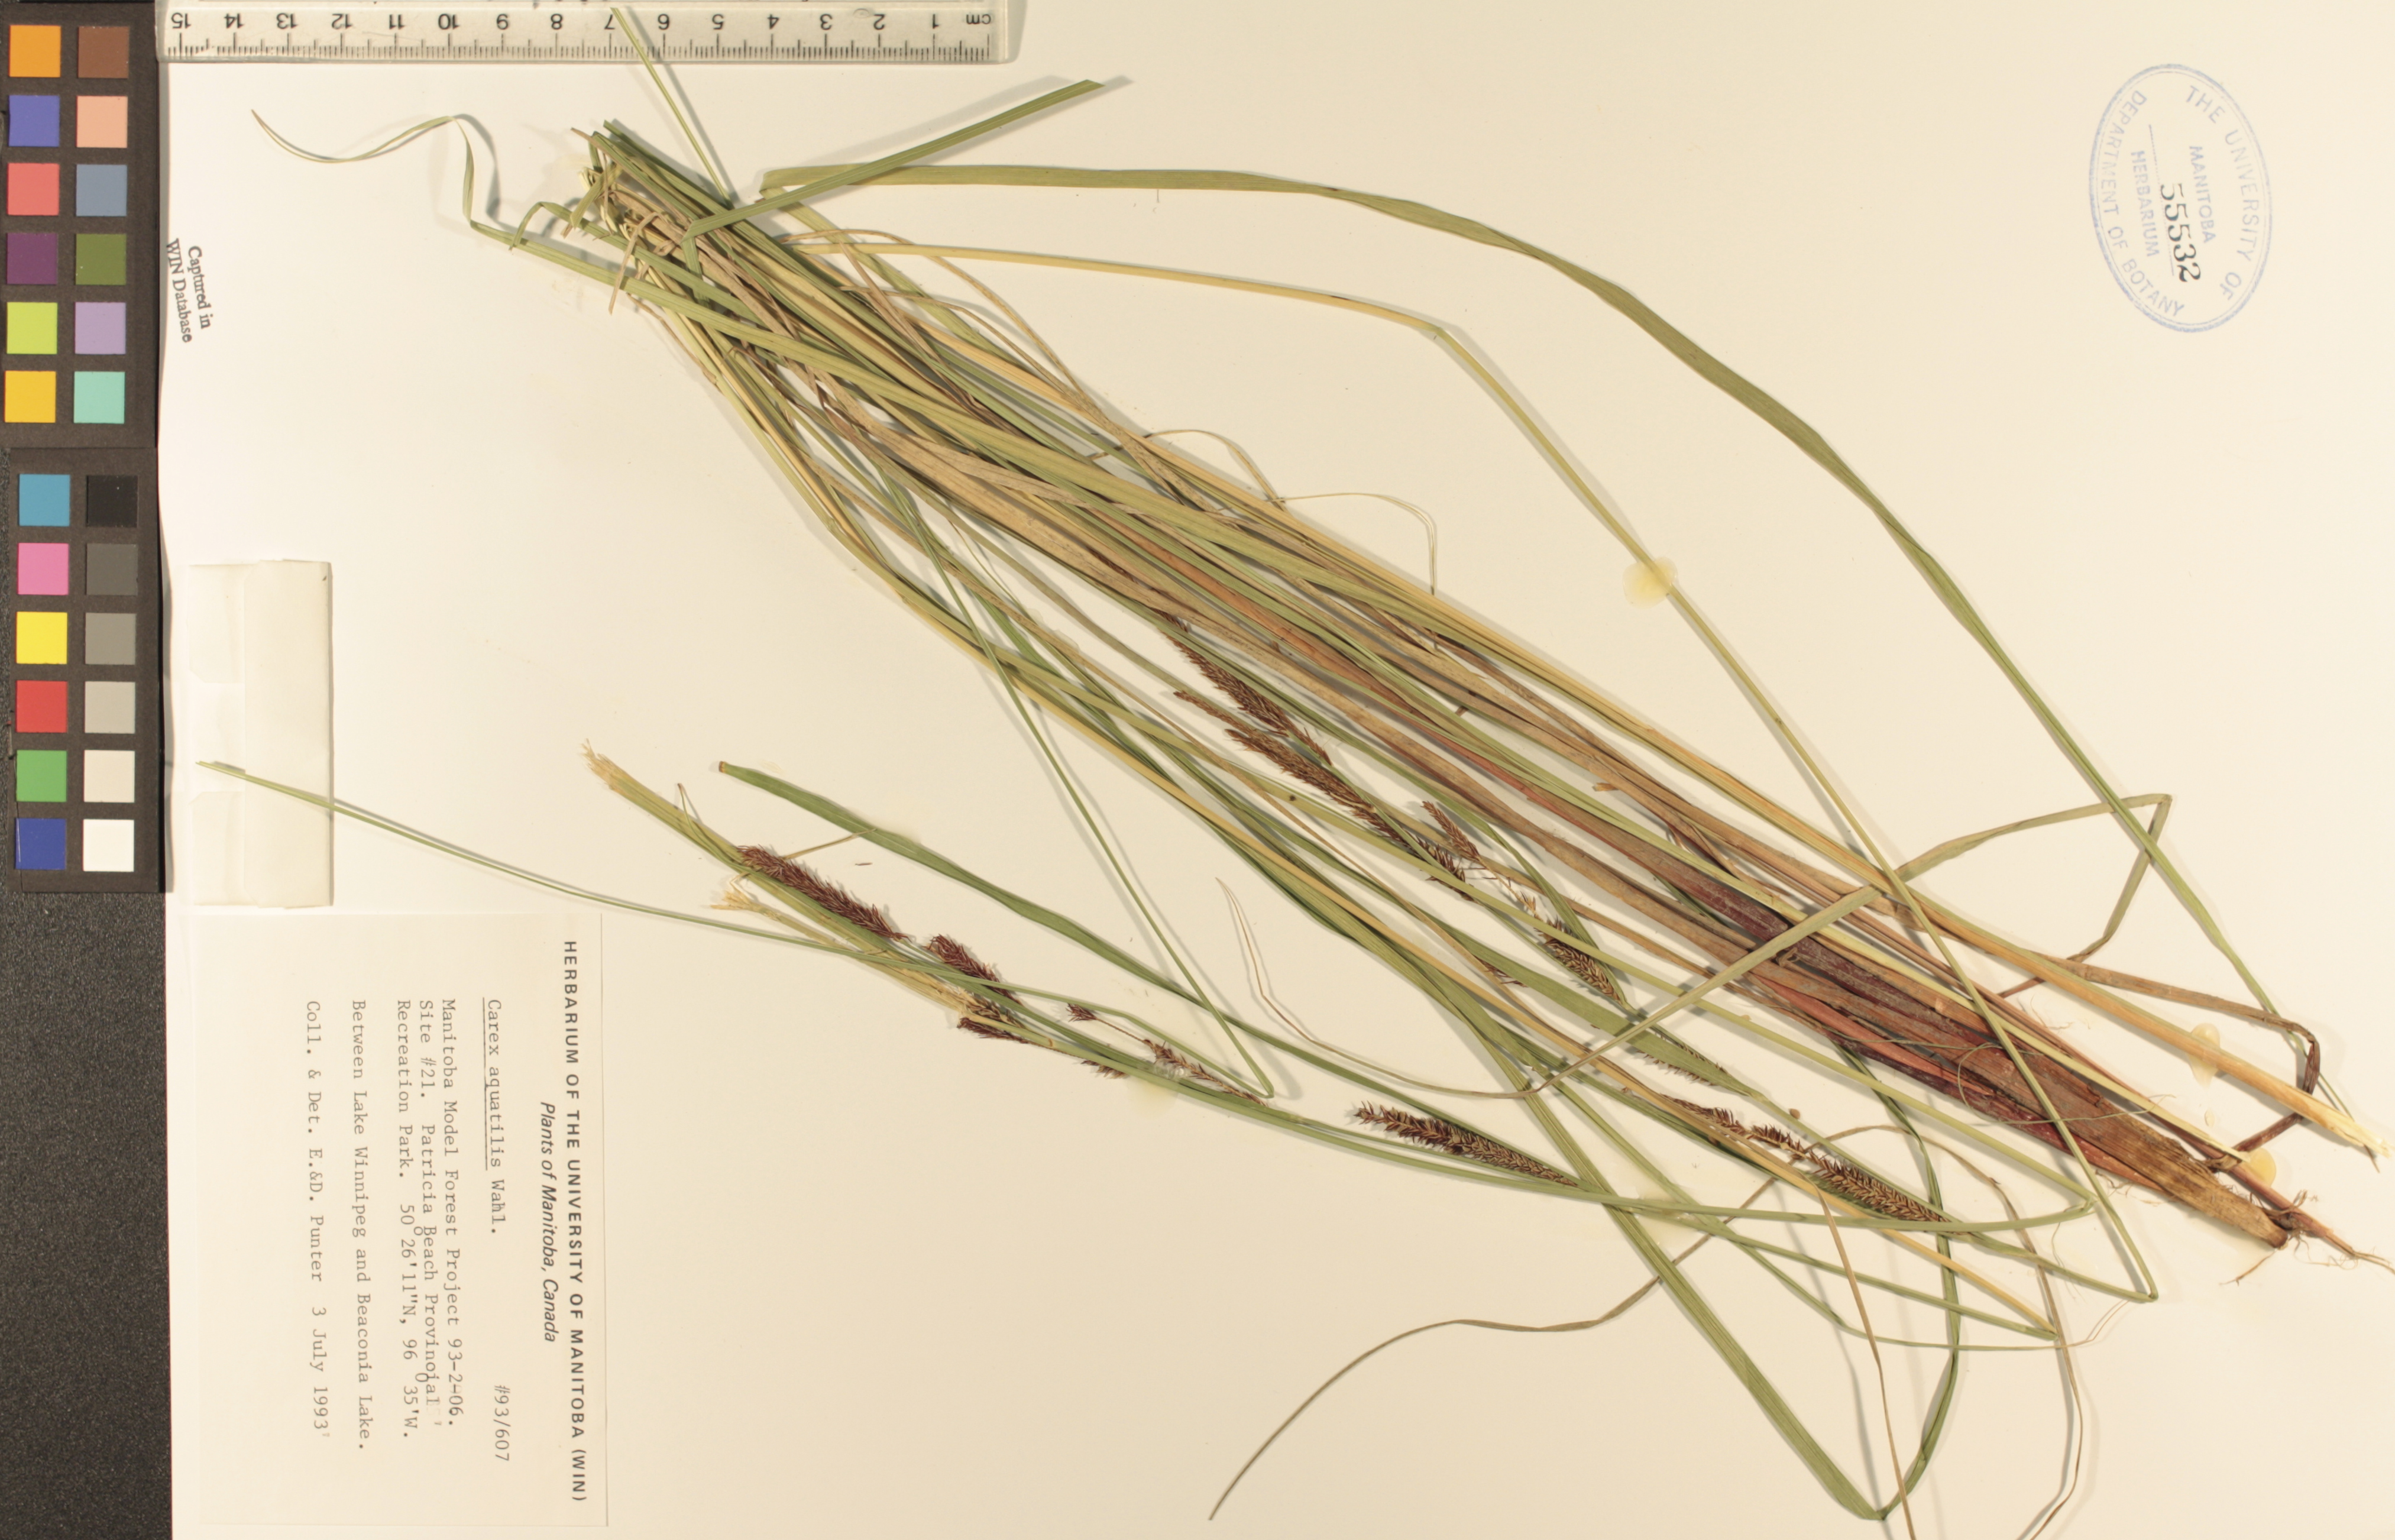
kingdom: Plantae
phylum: Tracheophyta
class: Liliopsida
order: Poales
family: Cyperaceae
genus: Carex
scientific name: Carex aquatilis
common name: Water sedge
